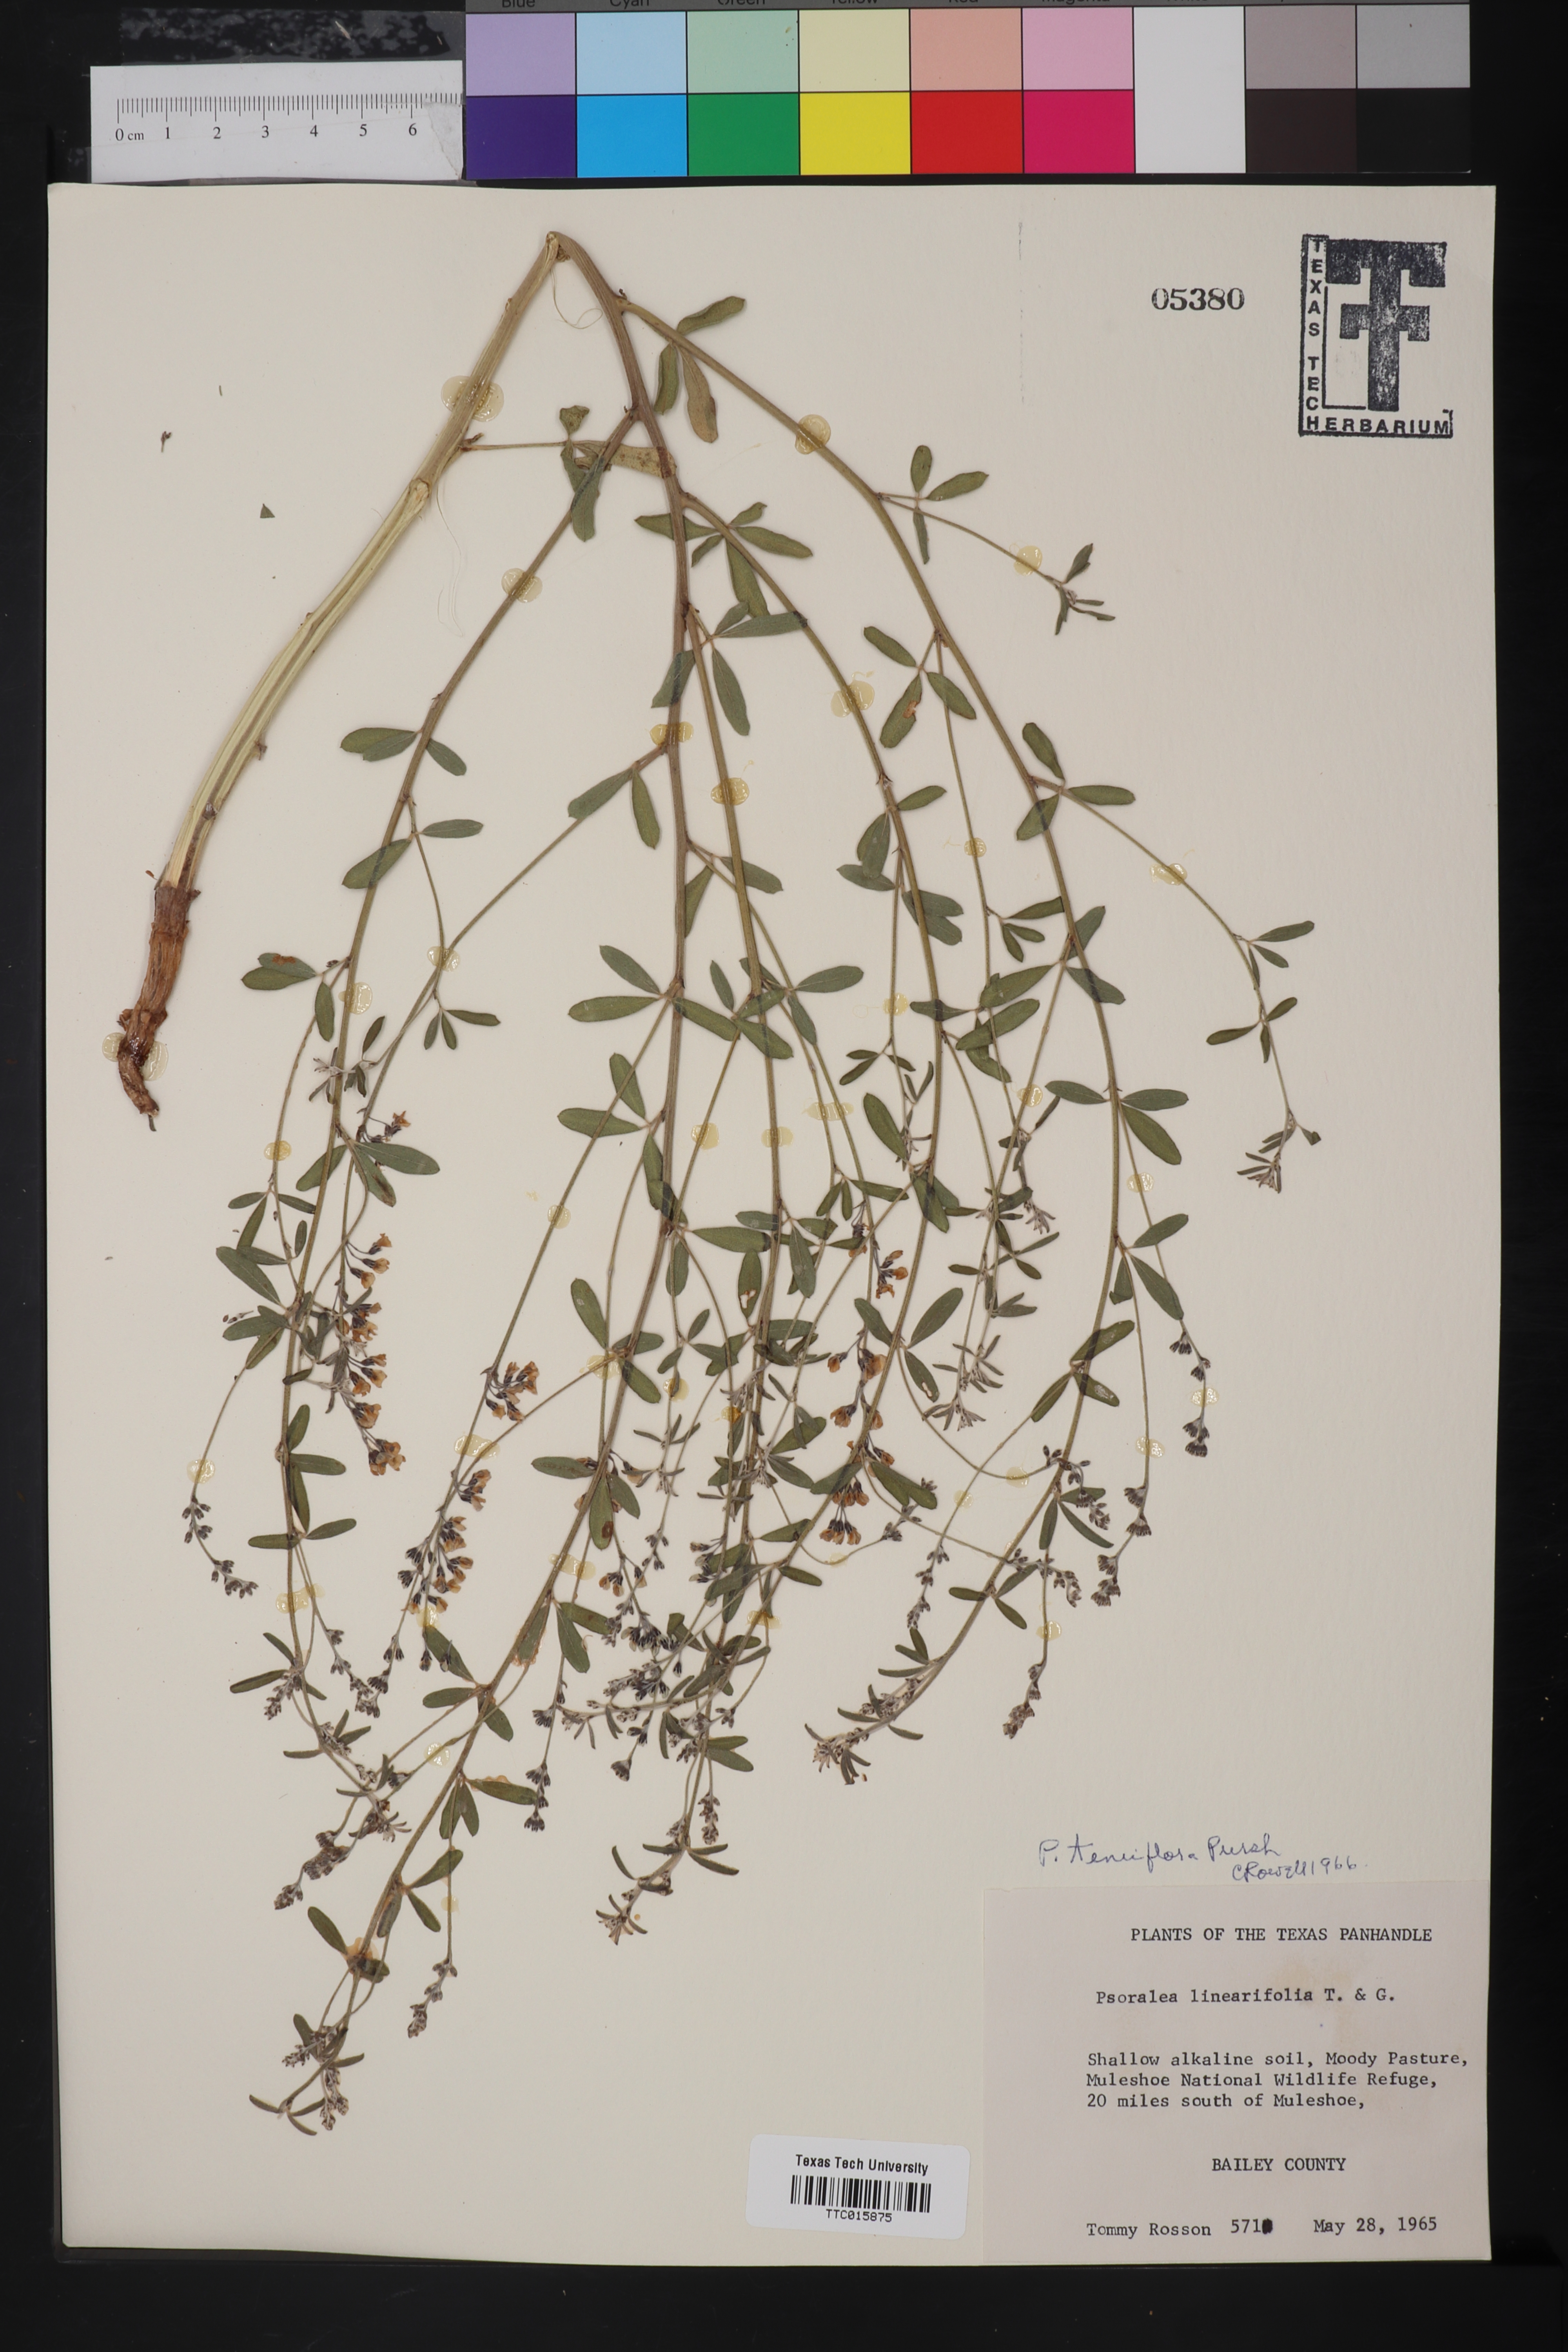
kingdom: Plantae
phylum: Tracheophyta
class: Magnoliopsida
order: Fabales
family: Fabaceae
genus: Pediomelum
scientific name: Pediomelum tenuiflorum
